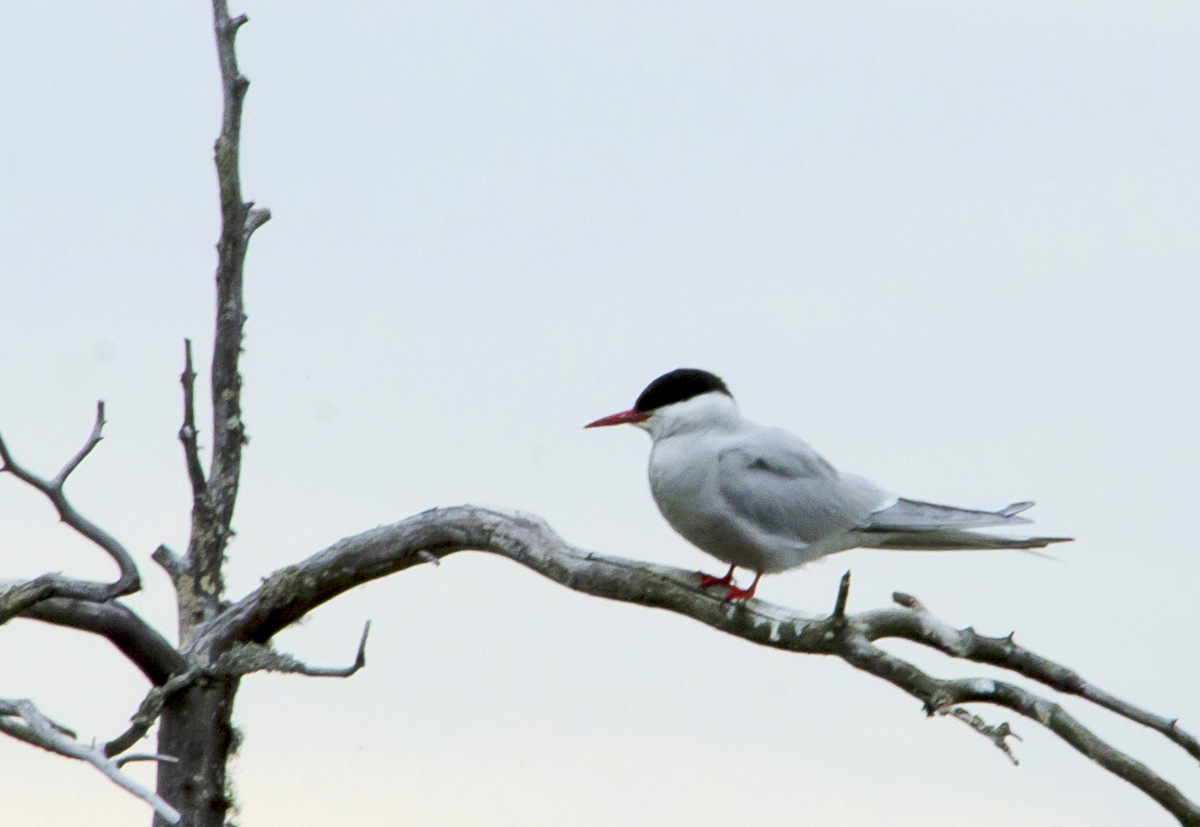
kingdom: Animalia
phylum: Chordata
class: Aves
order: Charadriiformes
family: Laridae
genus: Sterna
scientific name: Sterna paradisaea
